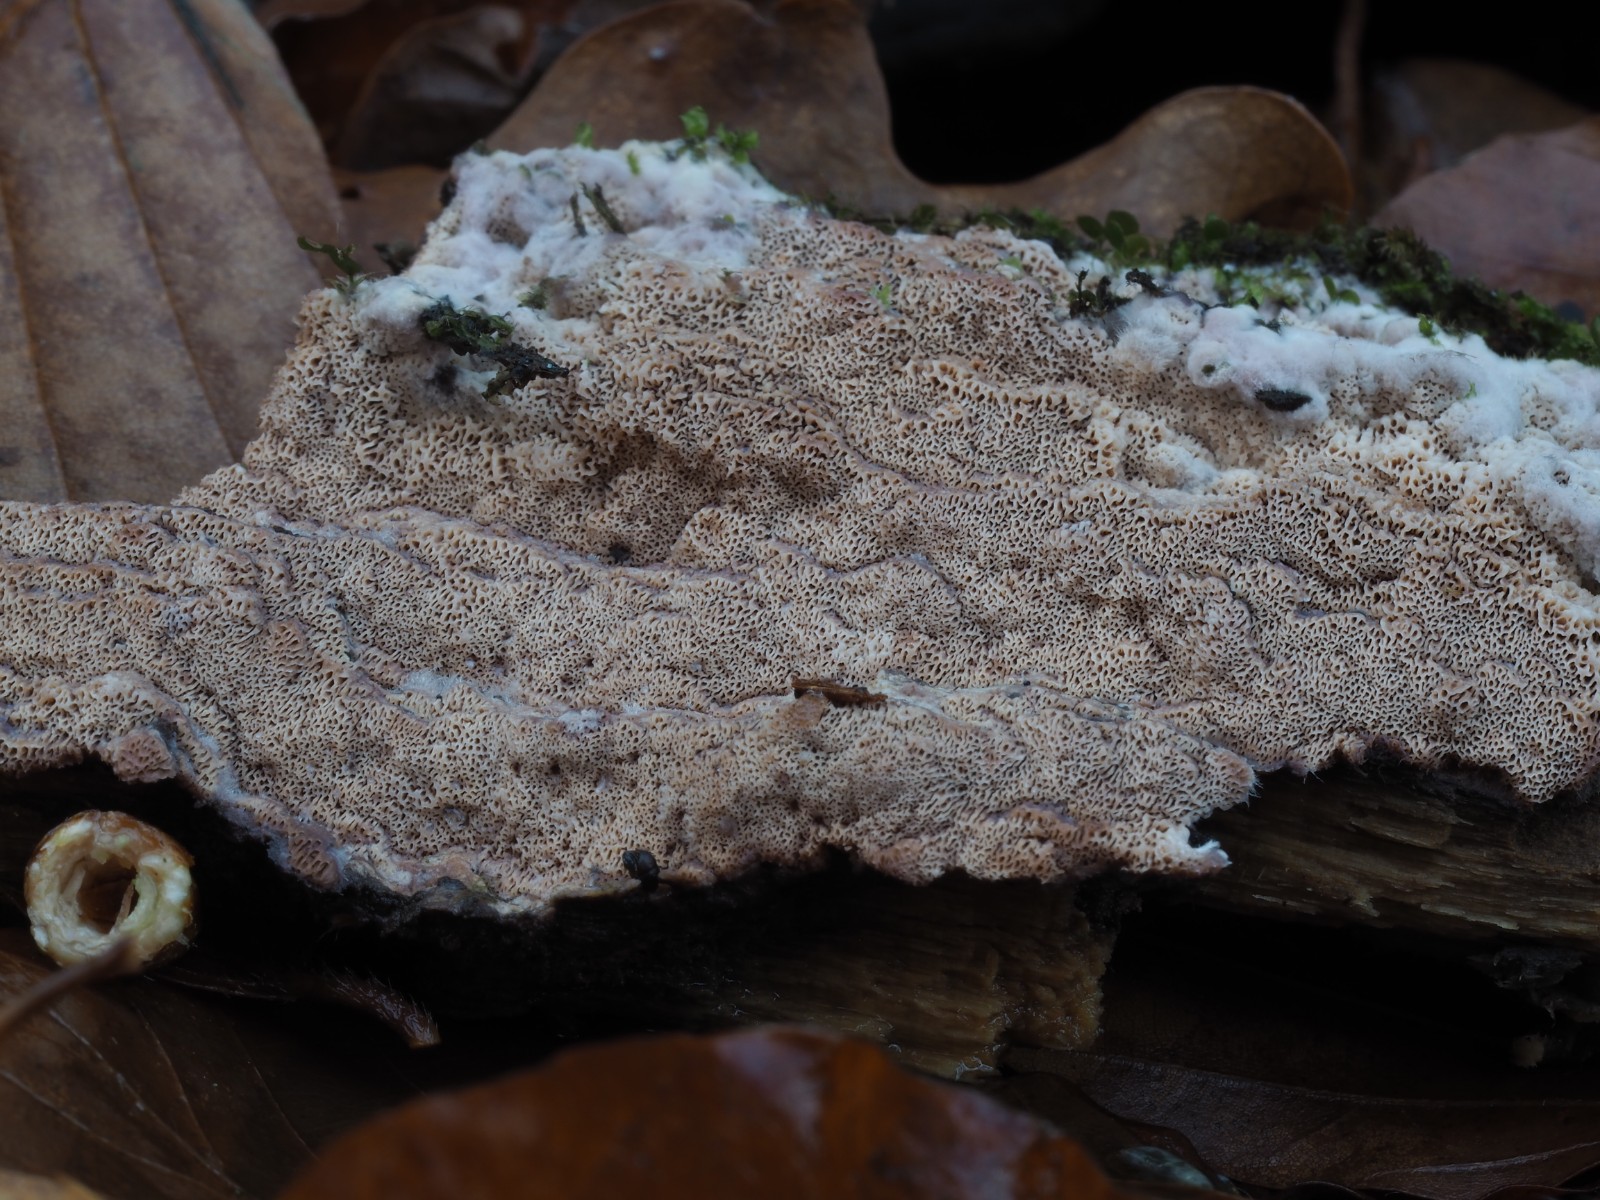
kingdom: Fungi
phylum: Basidiomycota
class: Agaricomycetes
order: Polyporales
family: Irpicaceae
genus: Ceriporia
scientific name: Ceriporia excelsa
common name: lilla voksporesvamp
